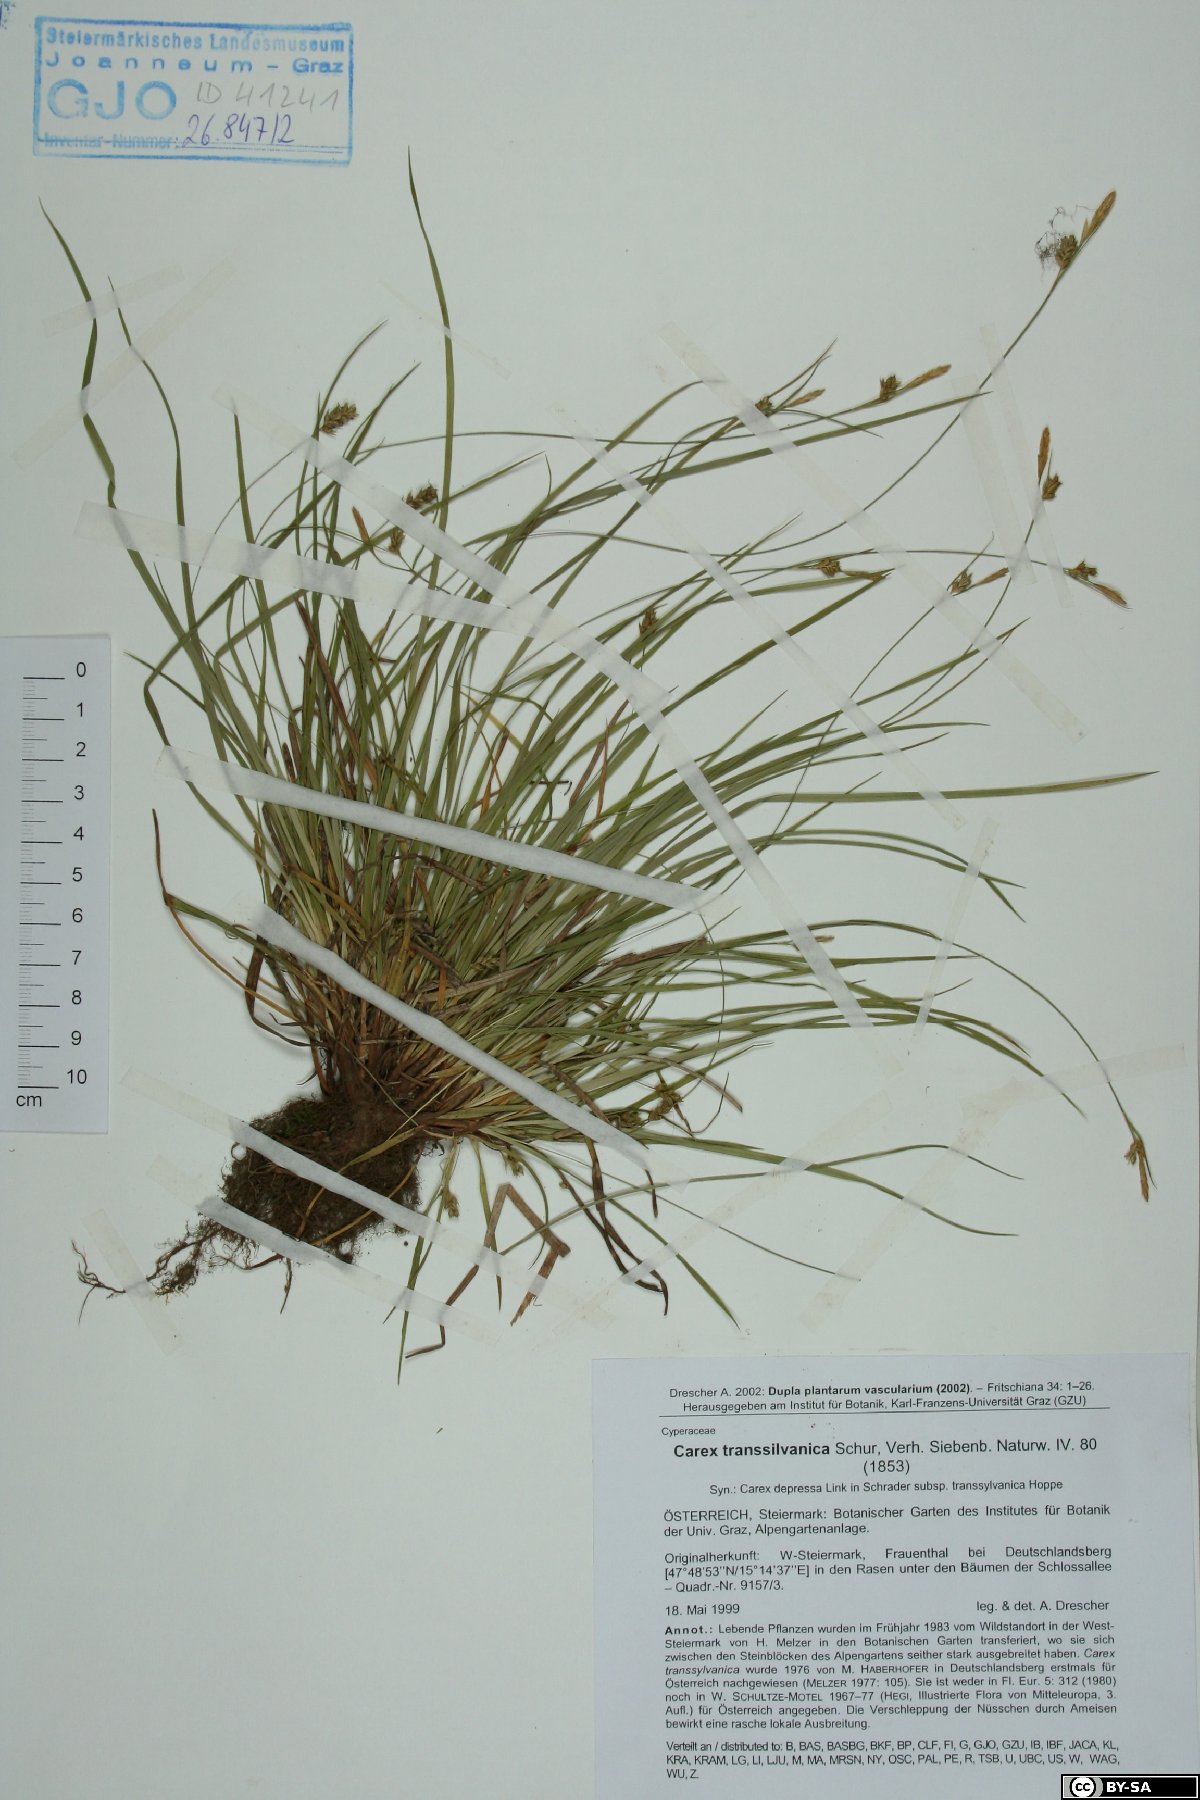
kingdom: Plantae
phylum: Tracheophyta
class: Liliopsida
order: Poales
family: Cyperaceae
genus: Carex
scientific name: Carex depressa
